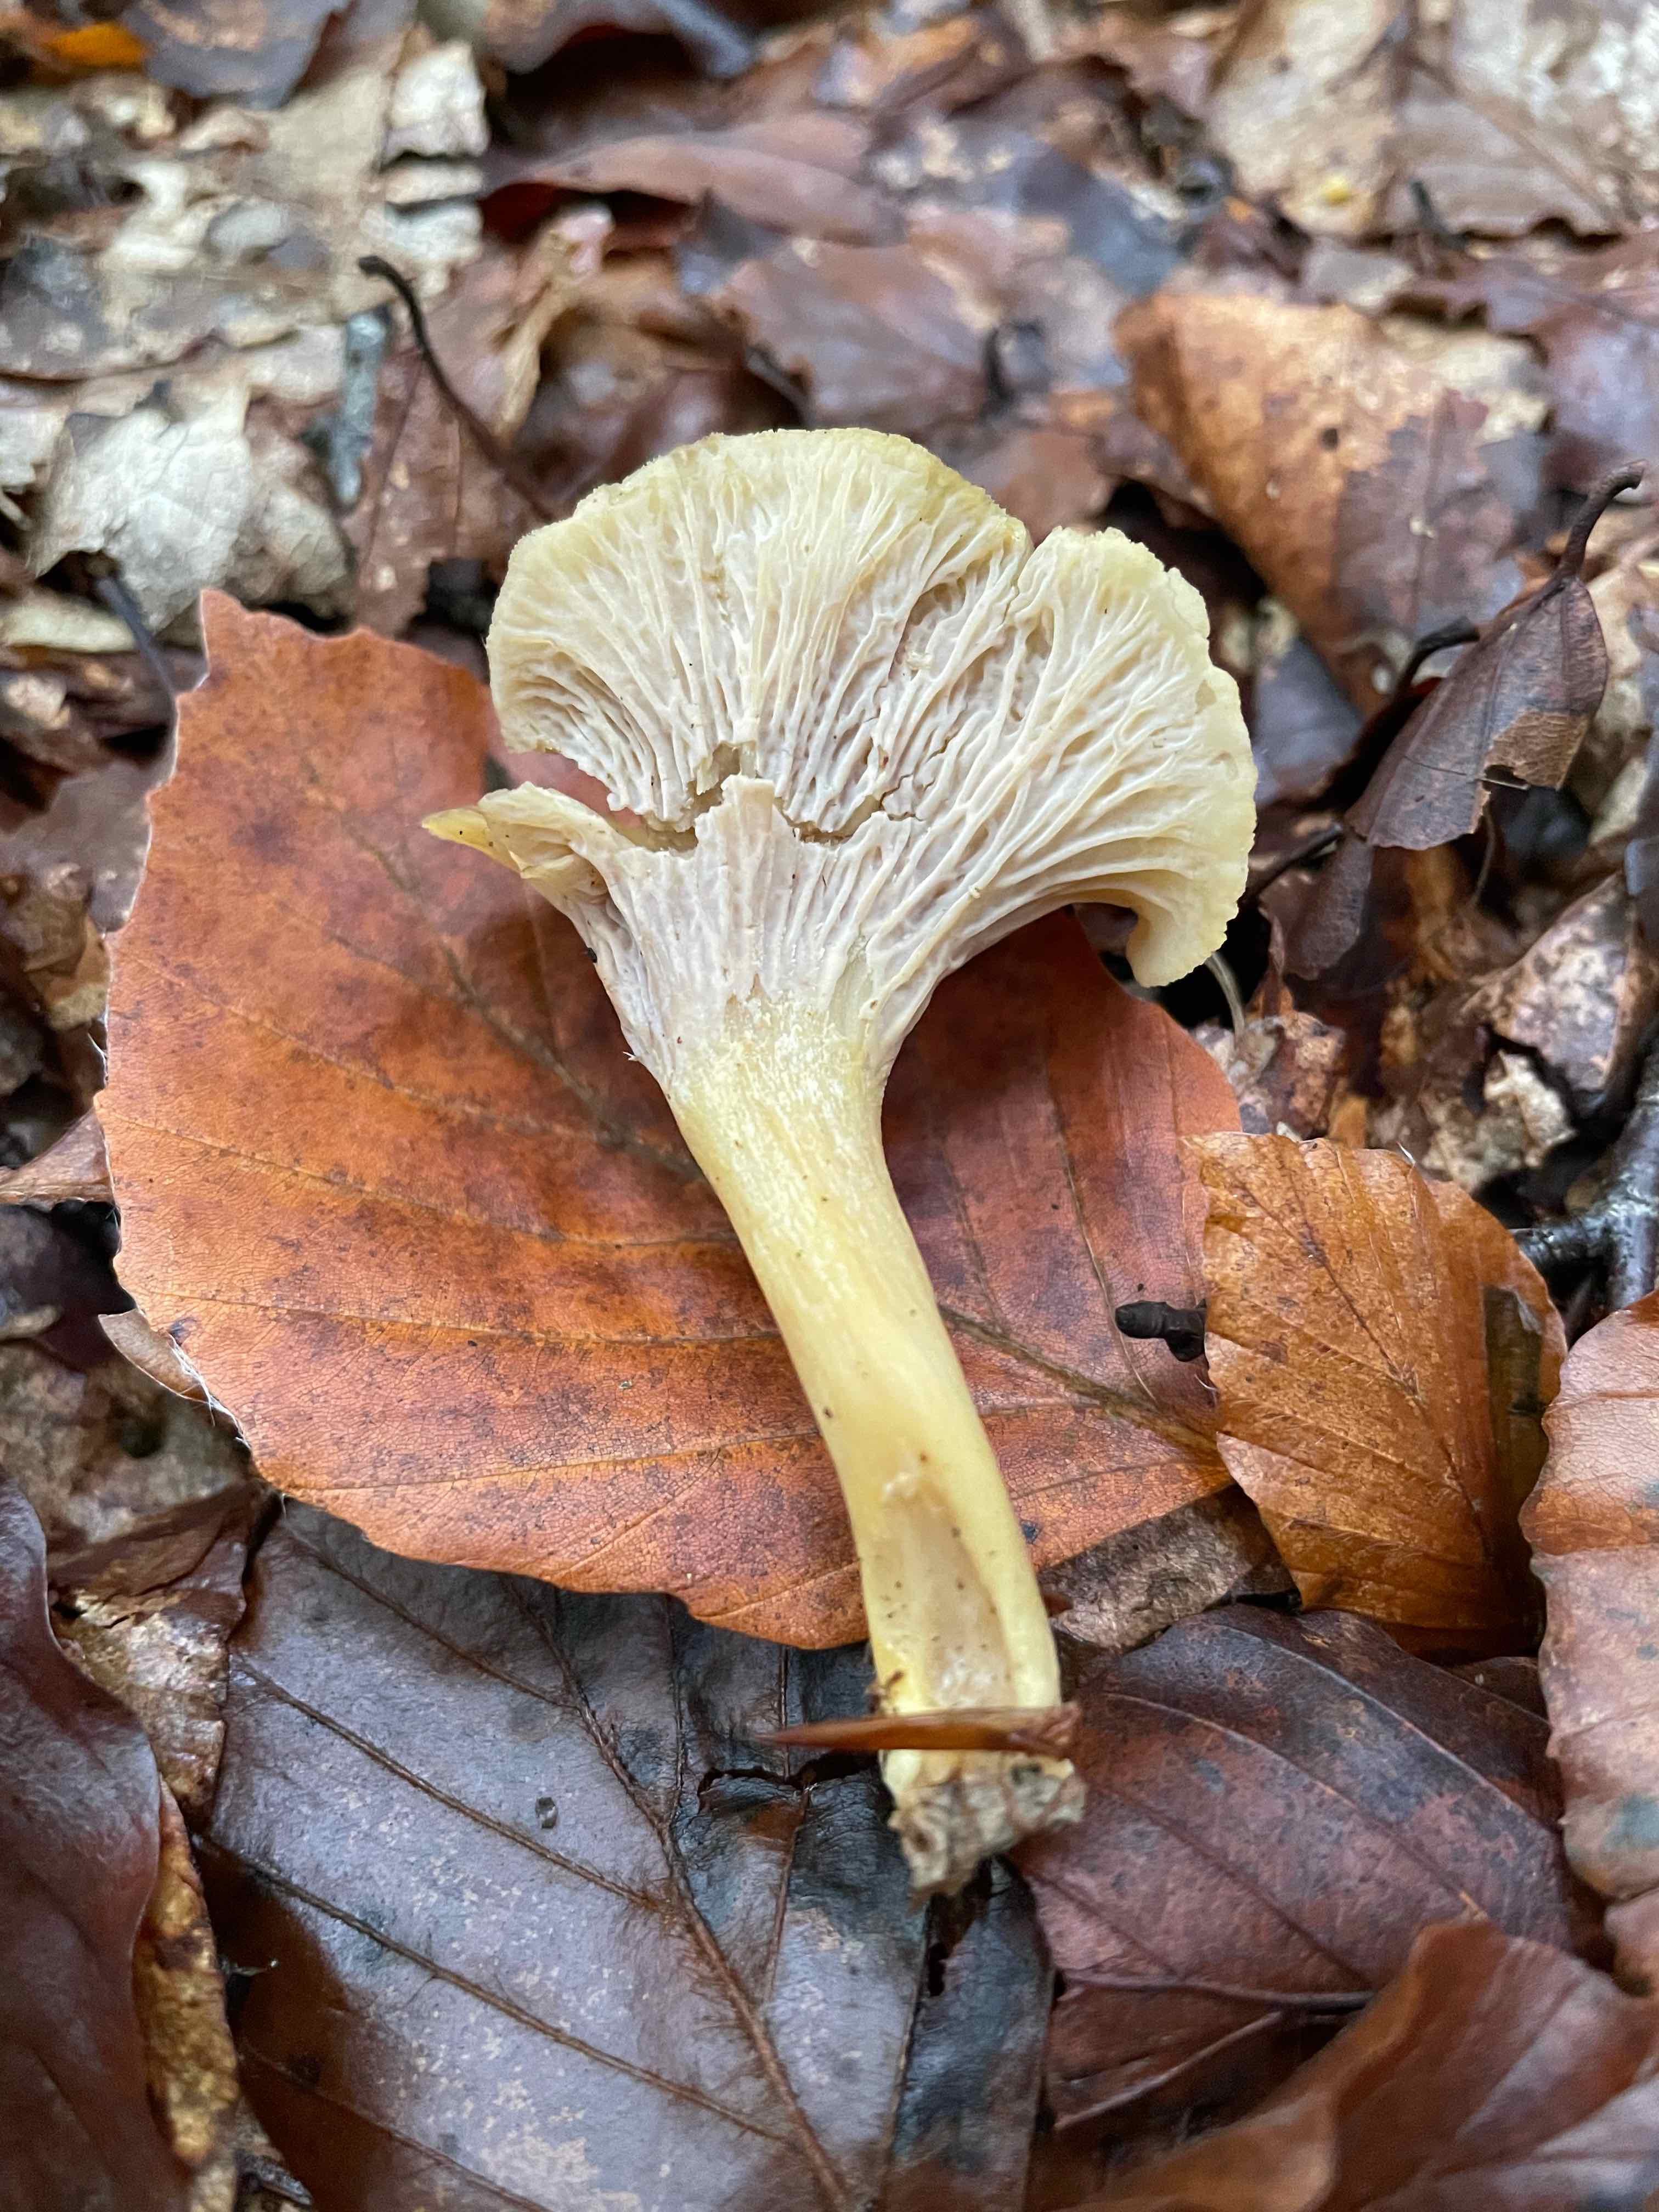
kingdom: Fungi
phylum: Basidiomycota
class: Agaricomycetes
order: Cantharellales
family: Hydnaceae
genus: Cantharellus
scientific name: Cantharellus melanoxeros
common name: sværtende kantarel
